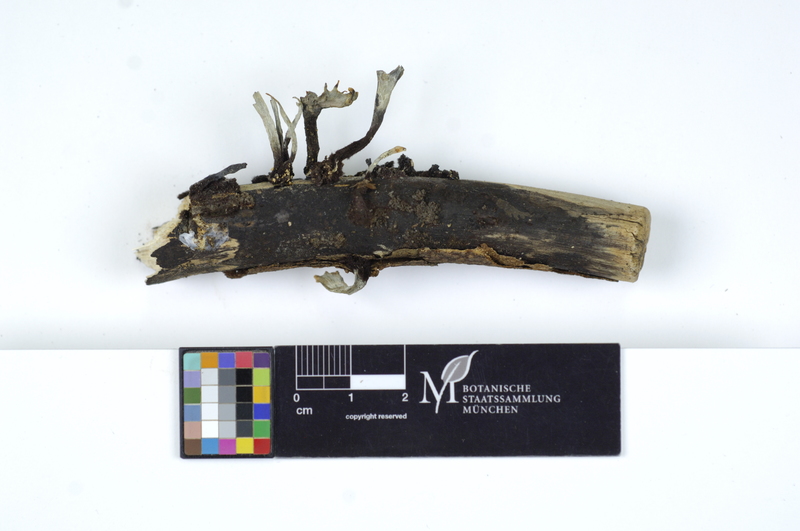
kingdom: Fungi
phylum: Ascomycota
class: Sordariomycetes
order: Xylariales
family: Xylariaceae
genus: Xylaria
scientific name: Xylaria hypoxylon
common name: Candle-snuff fungus
